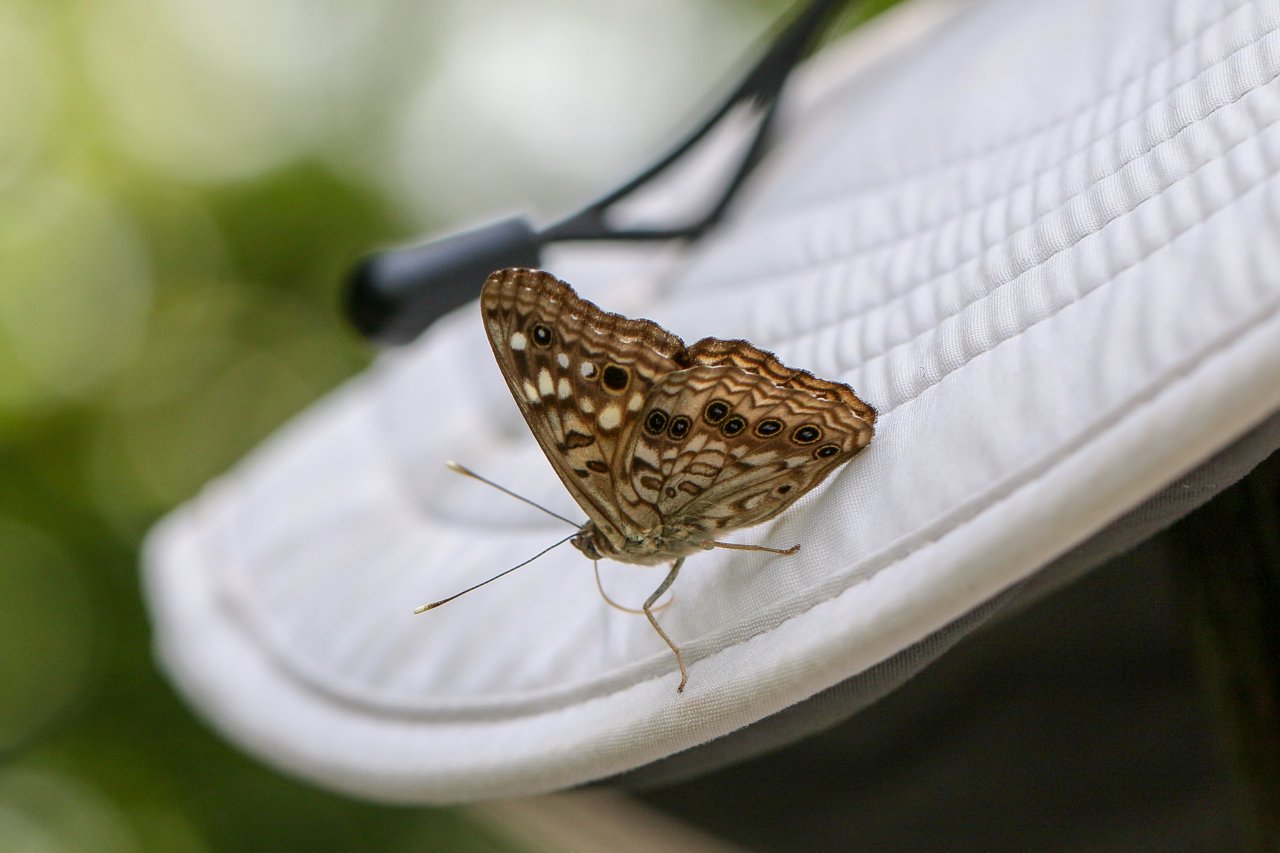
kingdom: Animalia
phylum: Arthropoda
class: Insecta
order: Lepidoptera
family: Nymphalidae
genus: Asterocampa
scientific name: Asterocampa celtis
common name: Hackberry Emperor
